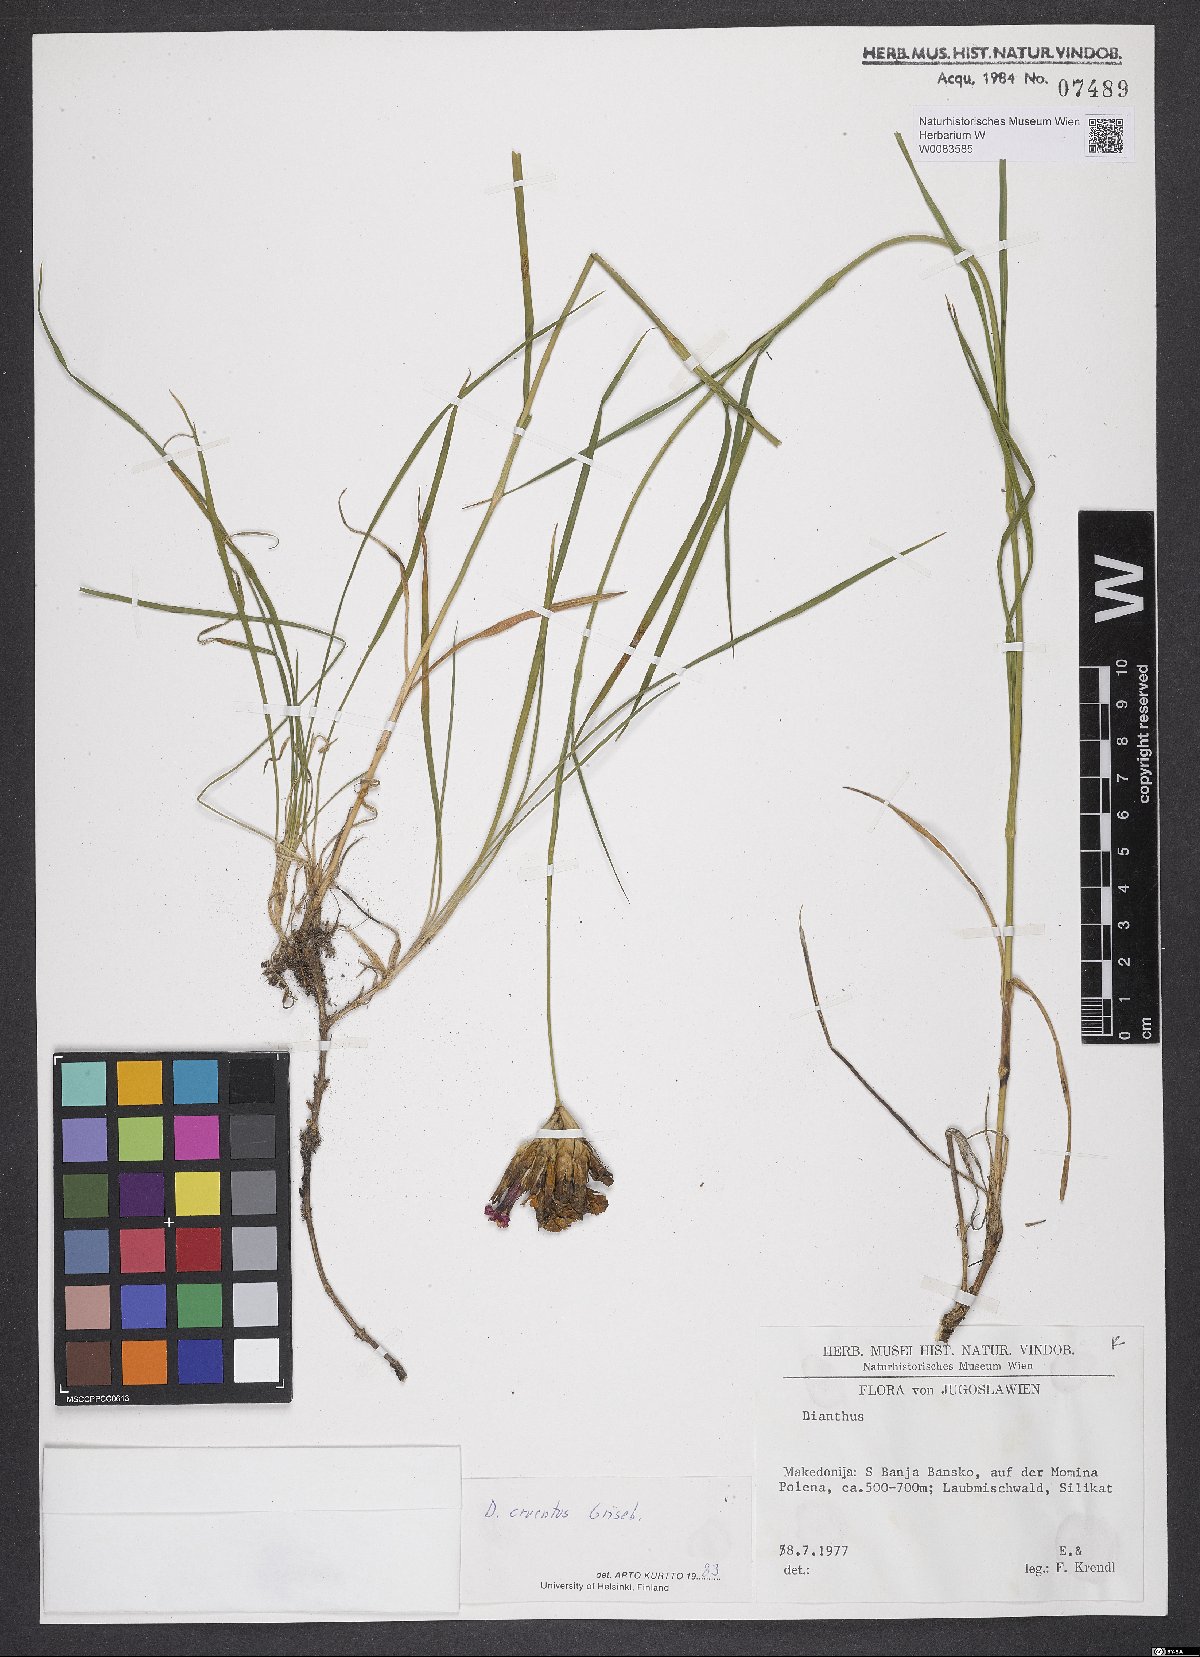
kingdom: Plantae
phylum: Tracheophyta
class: Magnoliopsida
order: Caryophyllales
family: Caryophyllaceae
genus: Dianthus
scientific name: Dianthus cruentus
